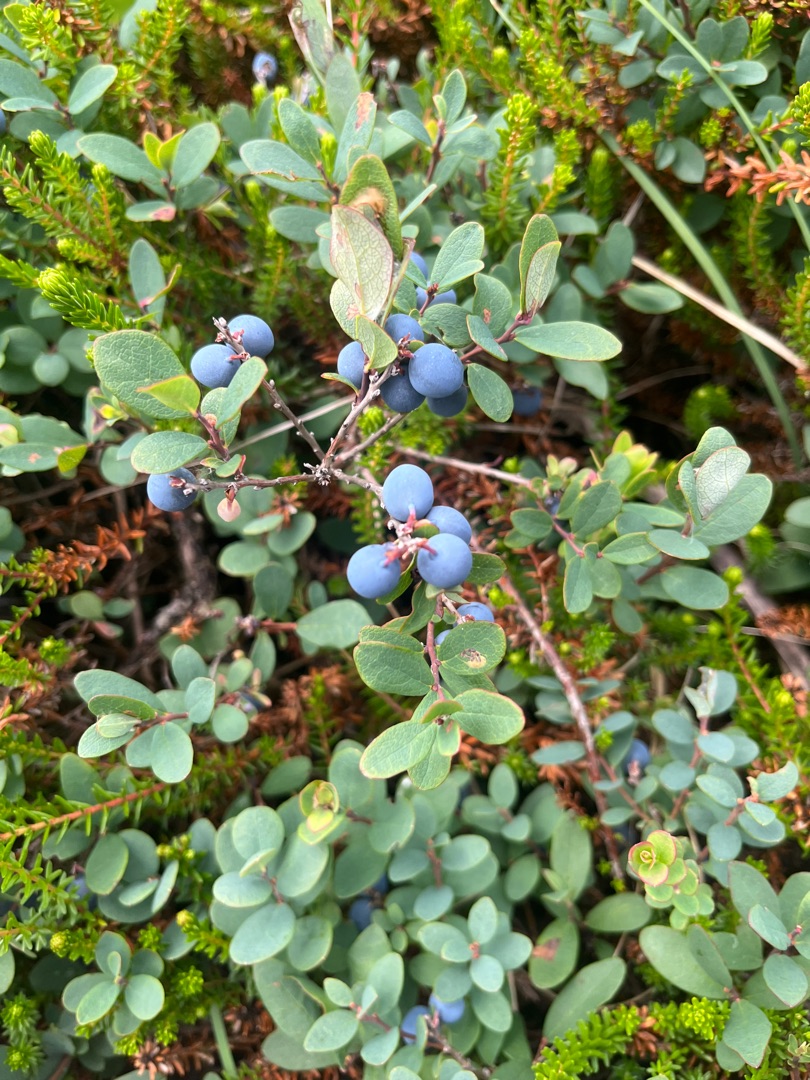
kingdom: Plantae
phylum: Tracheophyta
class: Magnoliopsida
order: Ericales
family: Ericaceae
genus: Vaccinium
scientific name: Vaccinium uliginosum
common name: Mose-bølle
